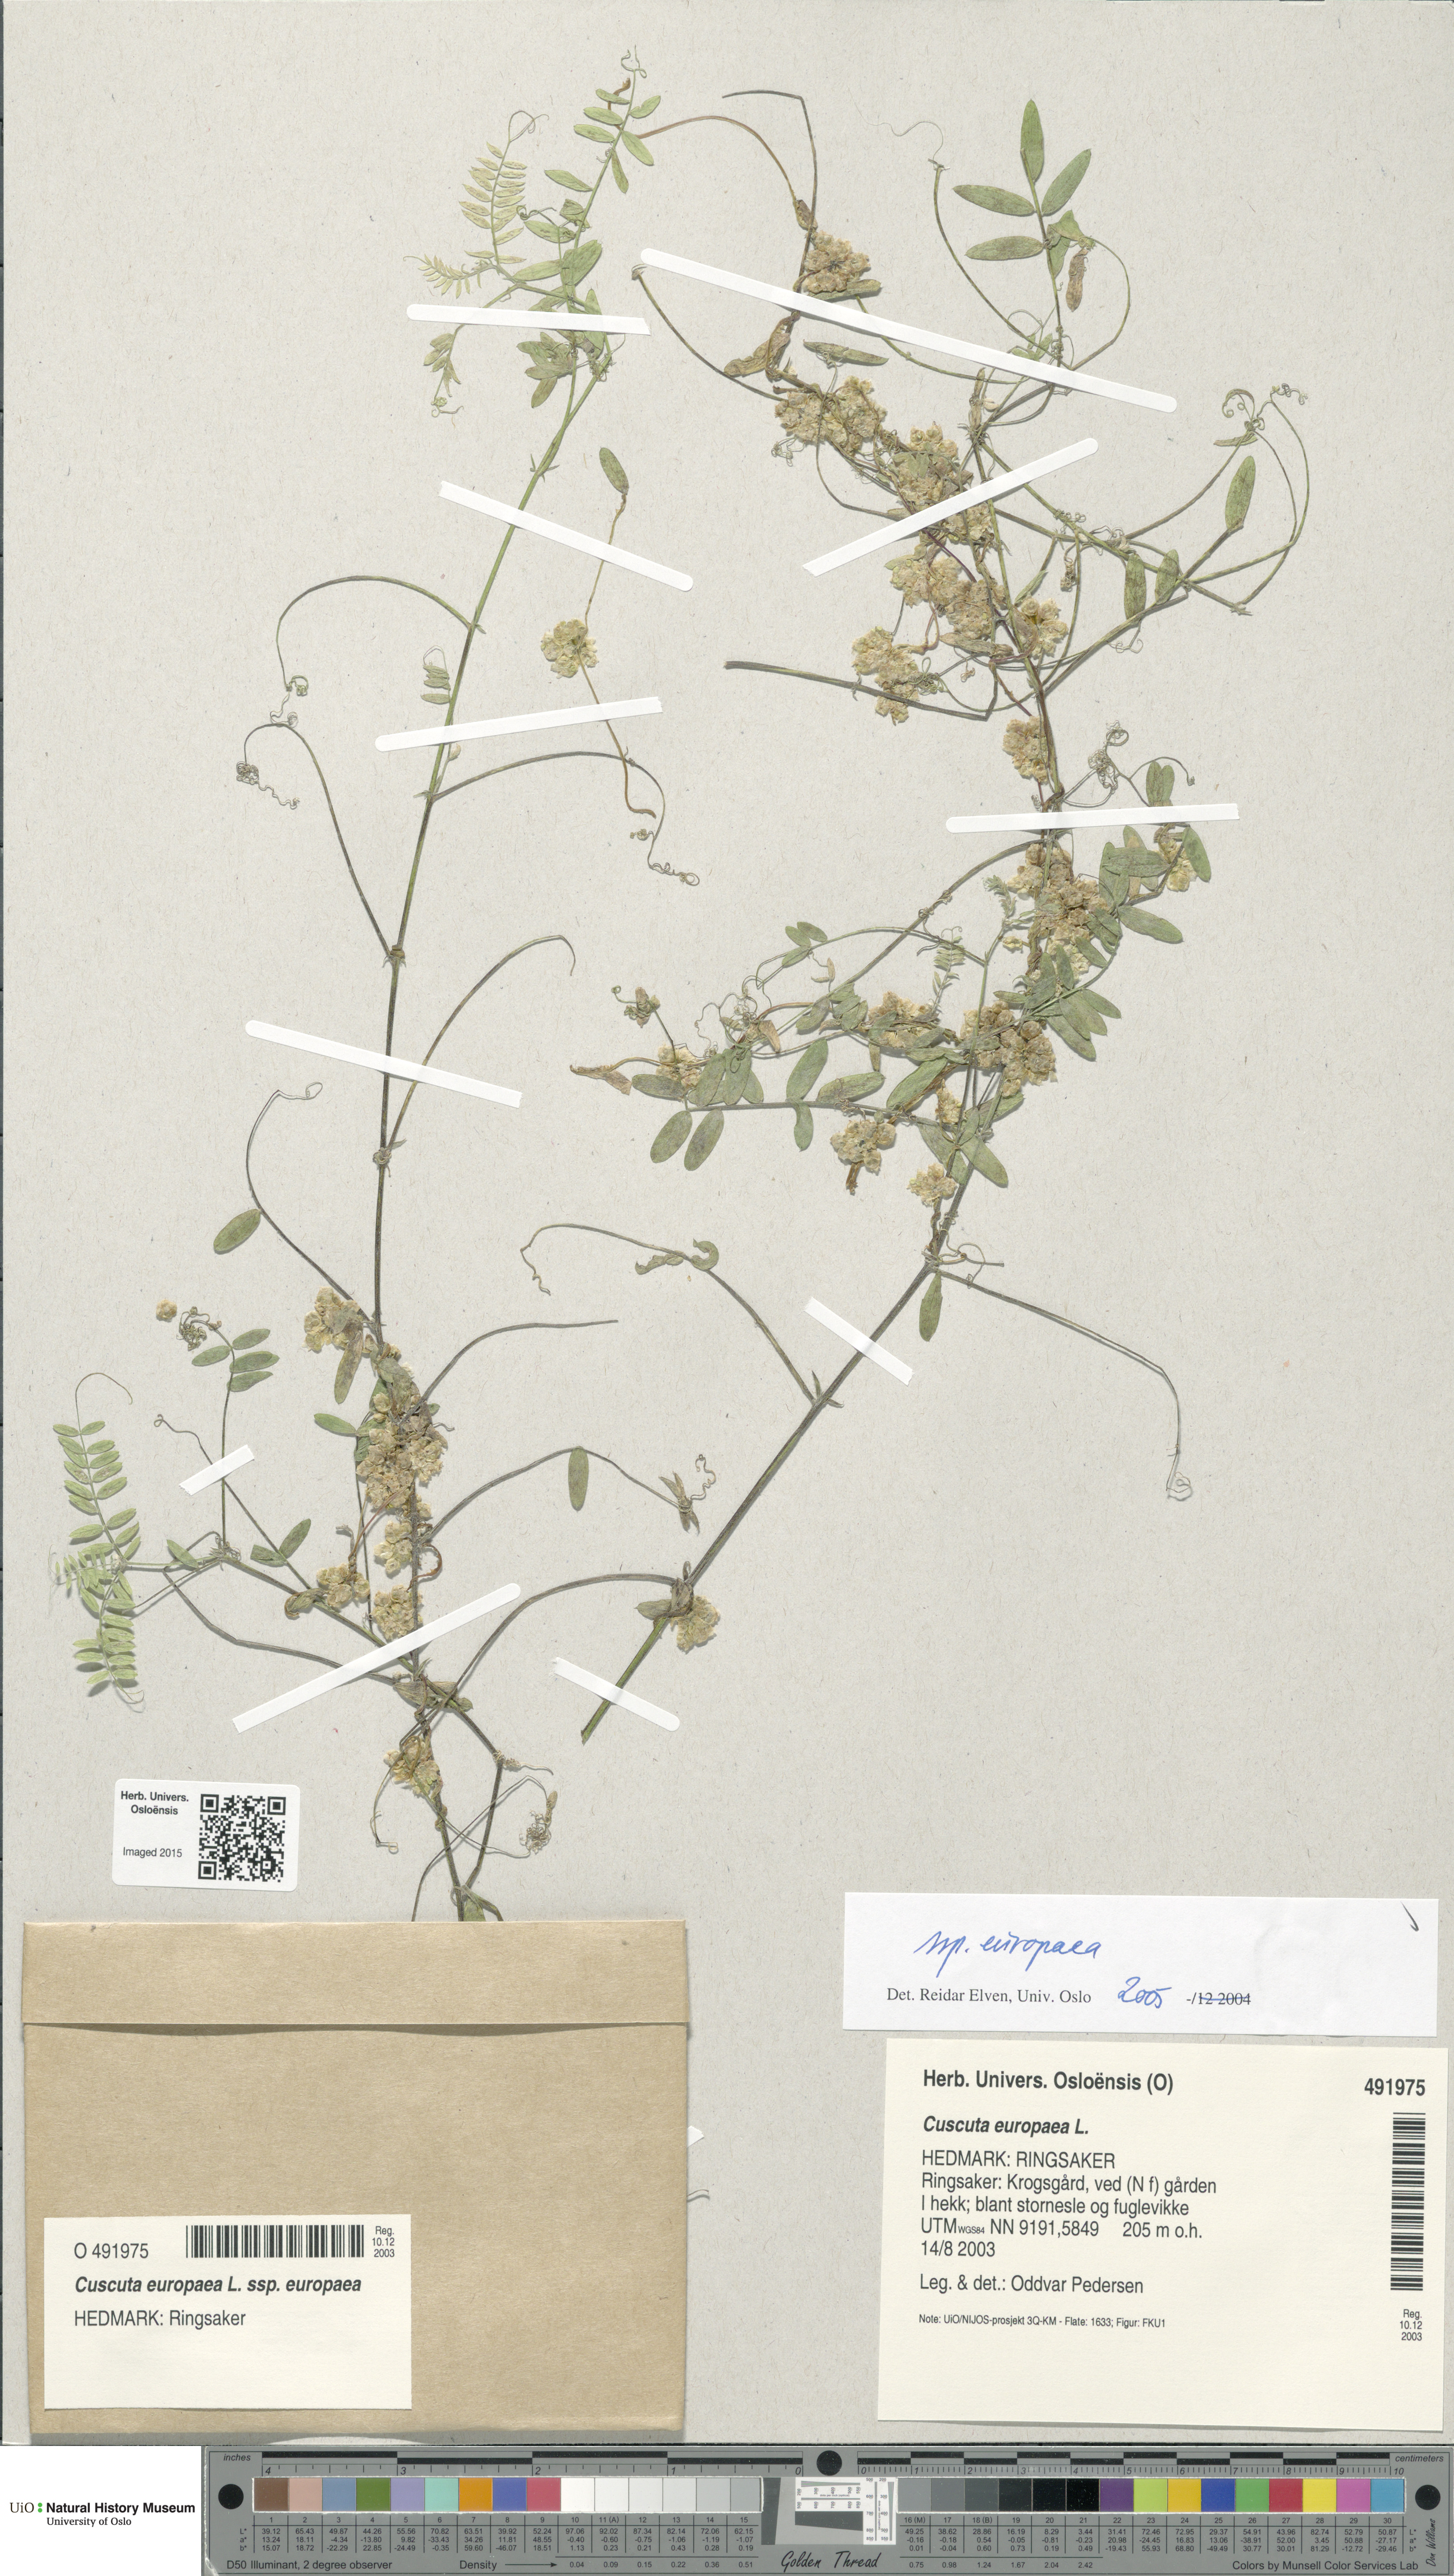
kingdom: Plantae
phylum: Tracheophyta
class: Magnoliopsida
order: Solanales
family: Convolvulaceae
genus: Cuscuta
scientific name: Cuscuta europaea
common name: Greater dodder
